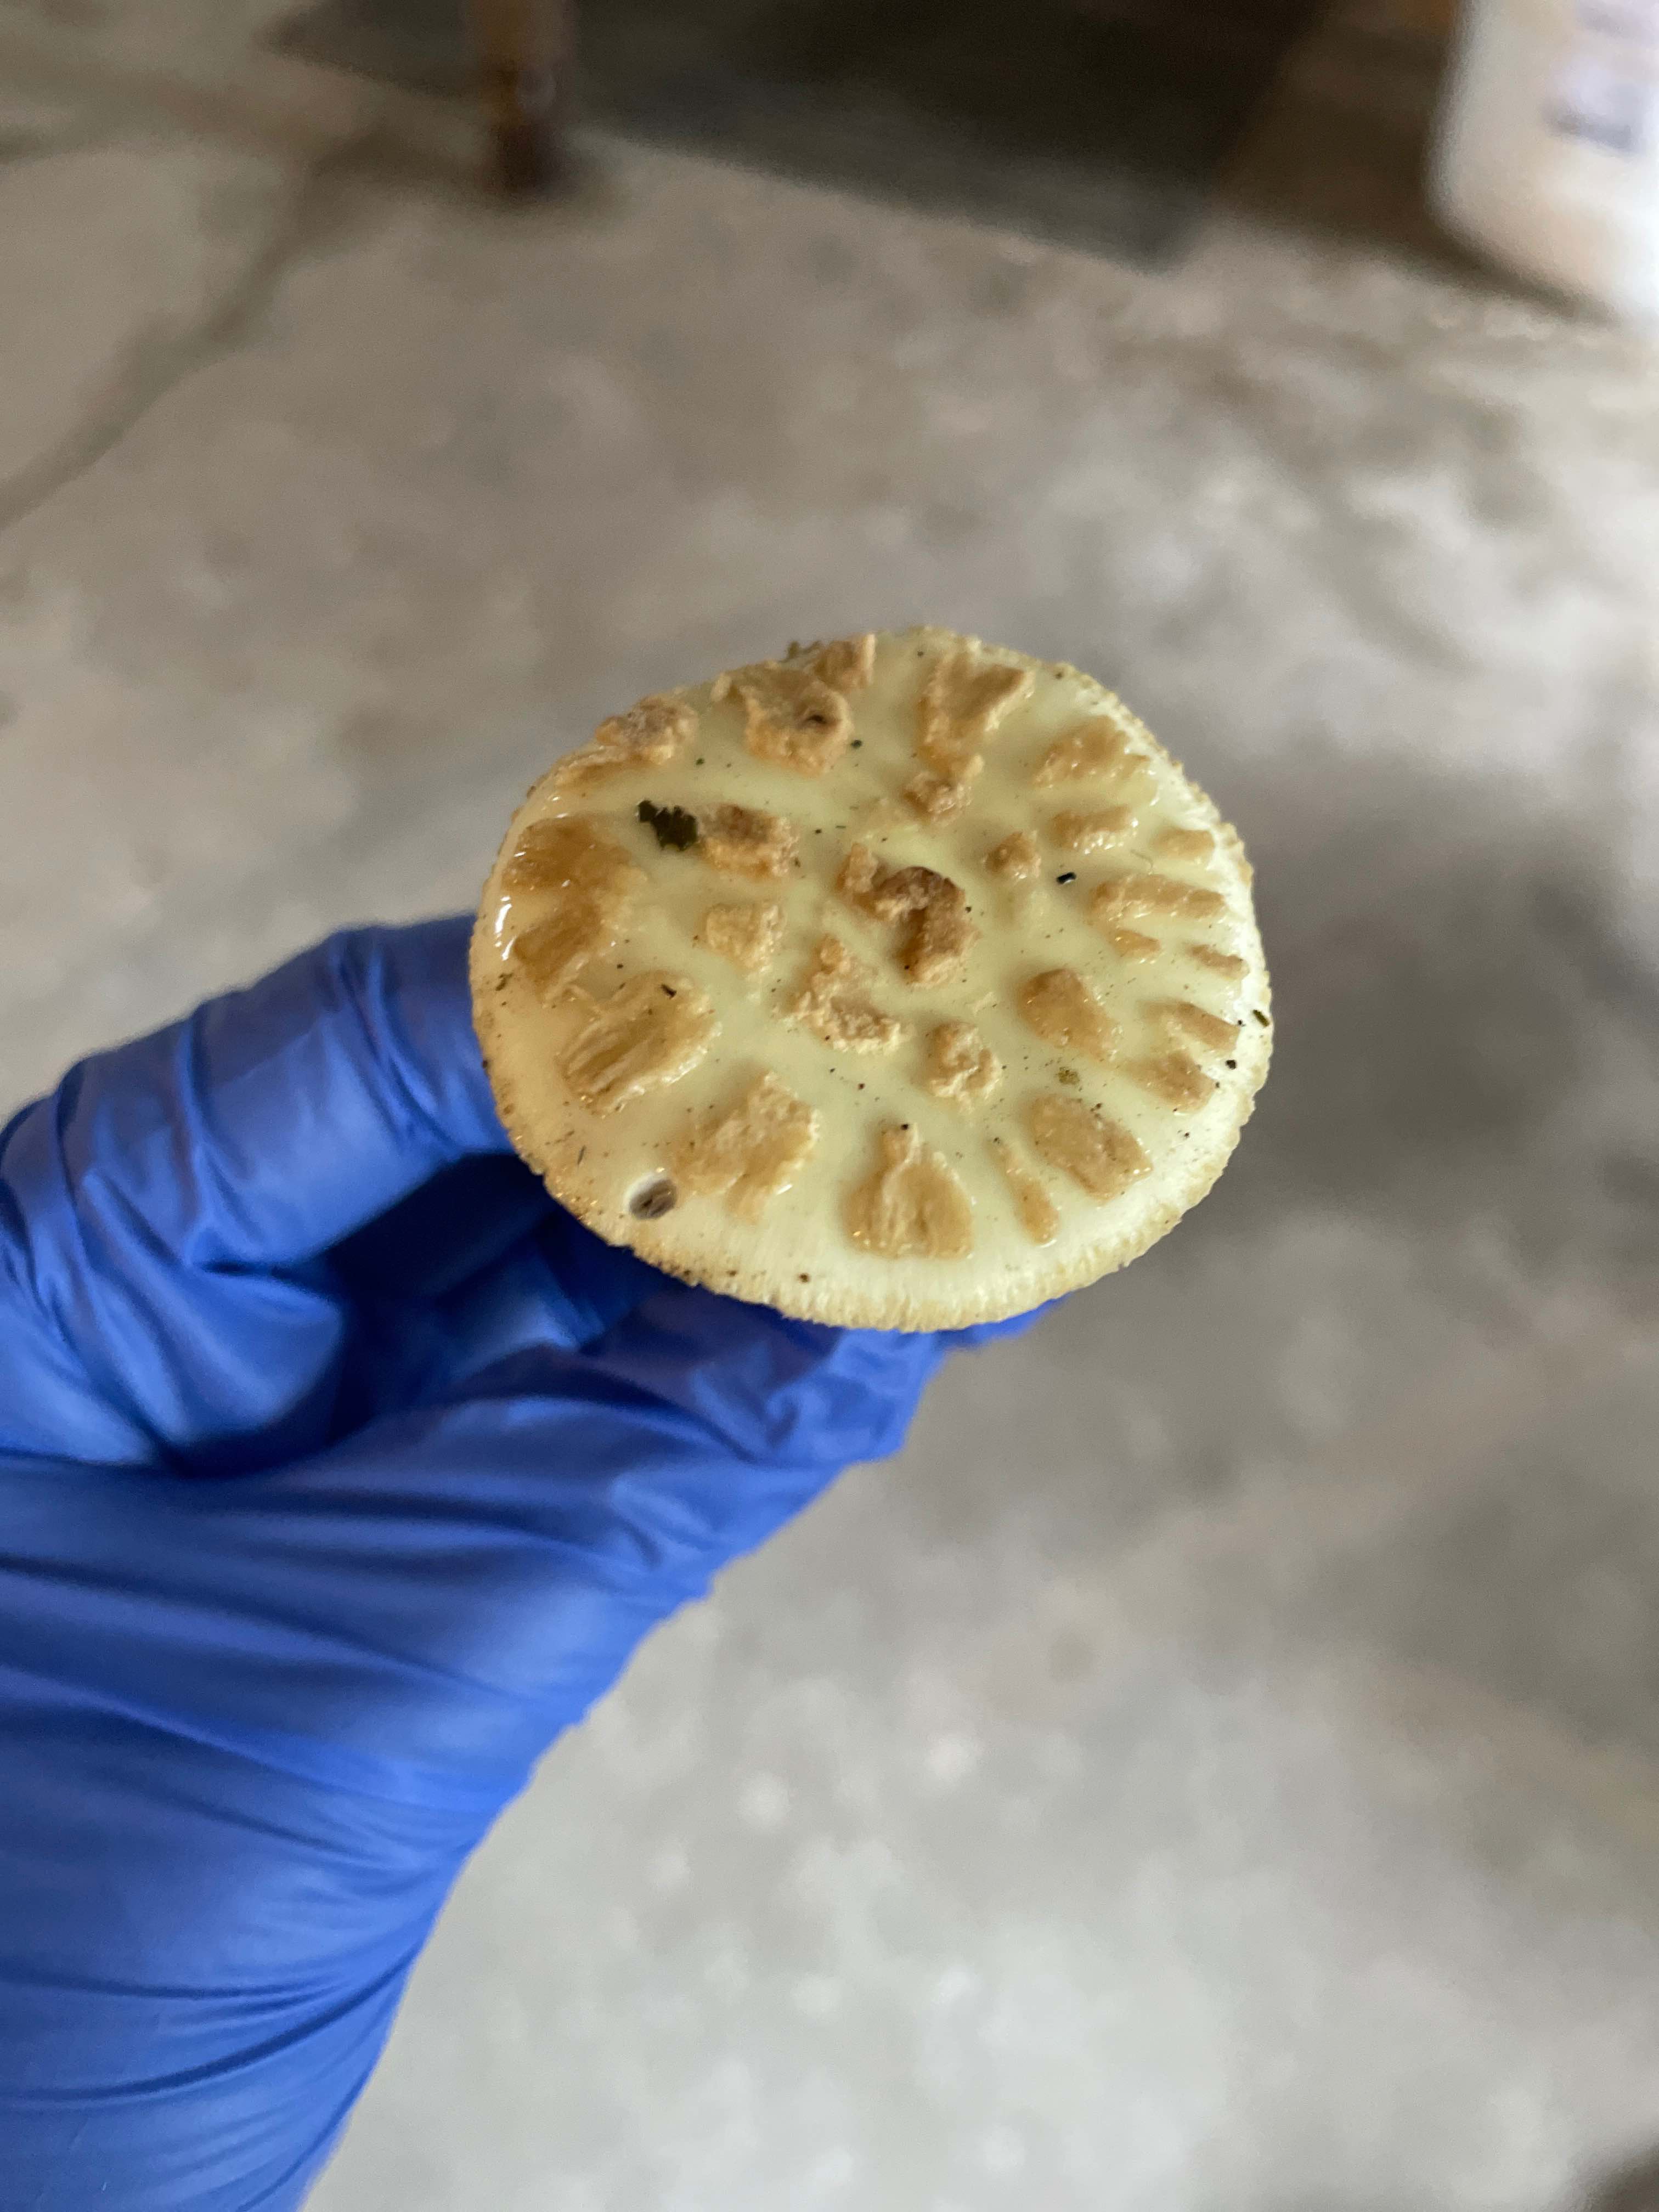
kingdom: Fungi
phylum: Basidiomycota
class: Agaricomycetes
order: Agaricales
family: Amanitaceae
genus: Amanita
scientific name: Amanita citrina
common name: kugleknoldet fluesvamp
